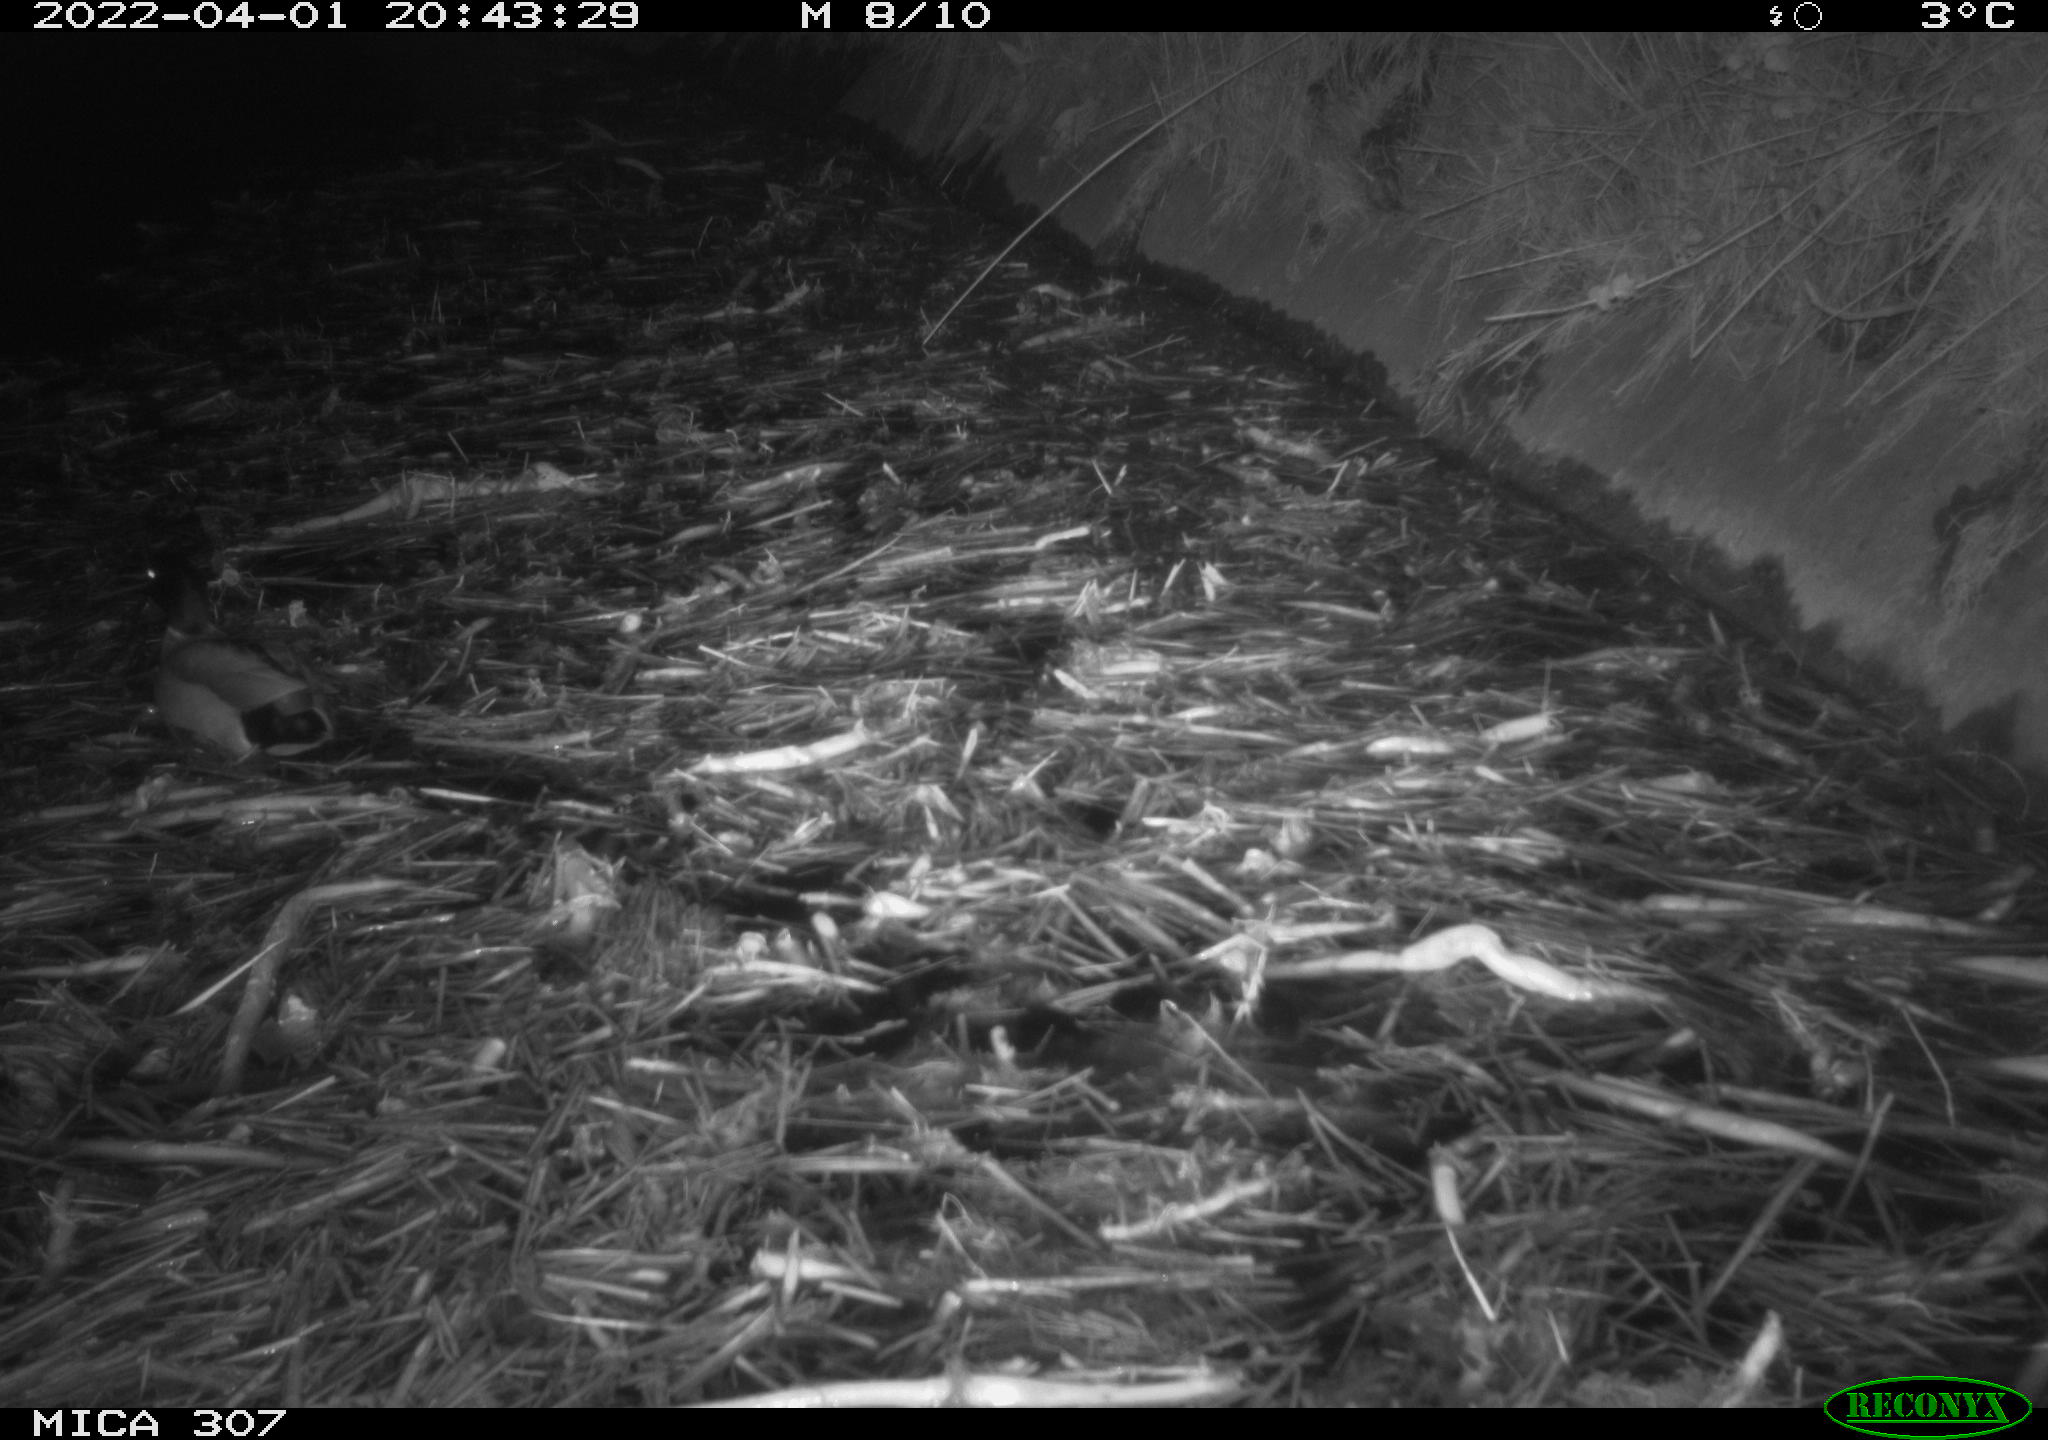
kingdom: Animalia
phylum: Chordata
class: Aves
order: Anseriformes
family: Anatidae
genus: Anas
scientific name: Anas platyrhynchos
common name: Mallard
